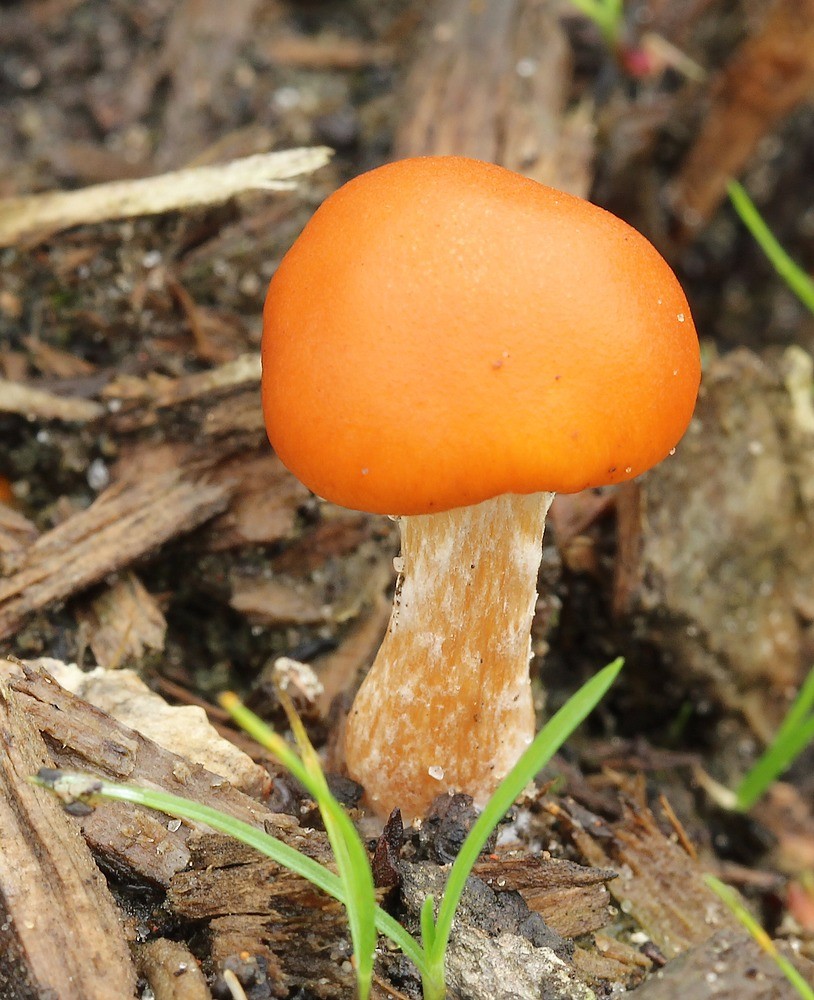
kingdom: Fungi
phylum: Basidiomycota
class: Agaricomycetes
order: Agaricales
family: Hymenogastraceae
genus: Gymnopilus
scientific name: Gymnopilus penetrans
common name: plettet flammehat
